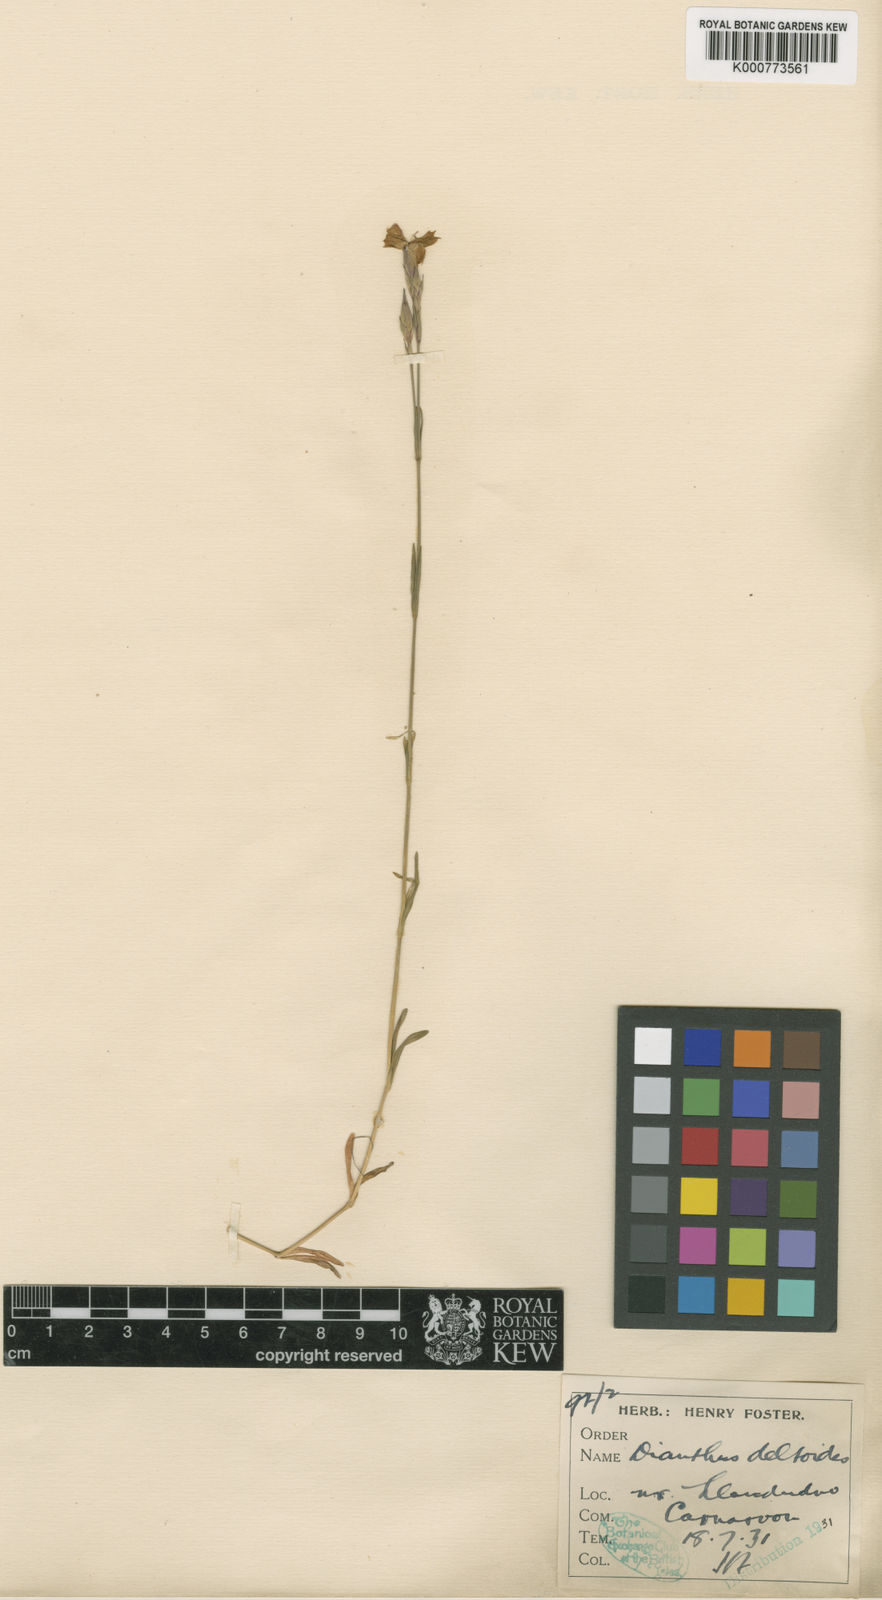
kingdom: Plantae
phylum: Tracheophyta
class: Magnoliopsida
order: Caryophyllales
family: Caryophyllaceae
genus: Dianthus
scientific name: Dianthus deltoides
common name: Maiden pink
